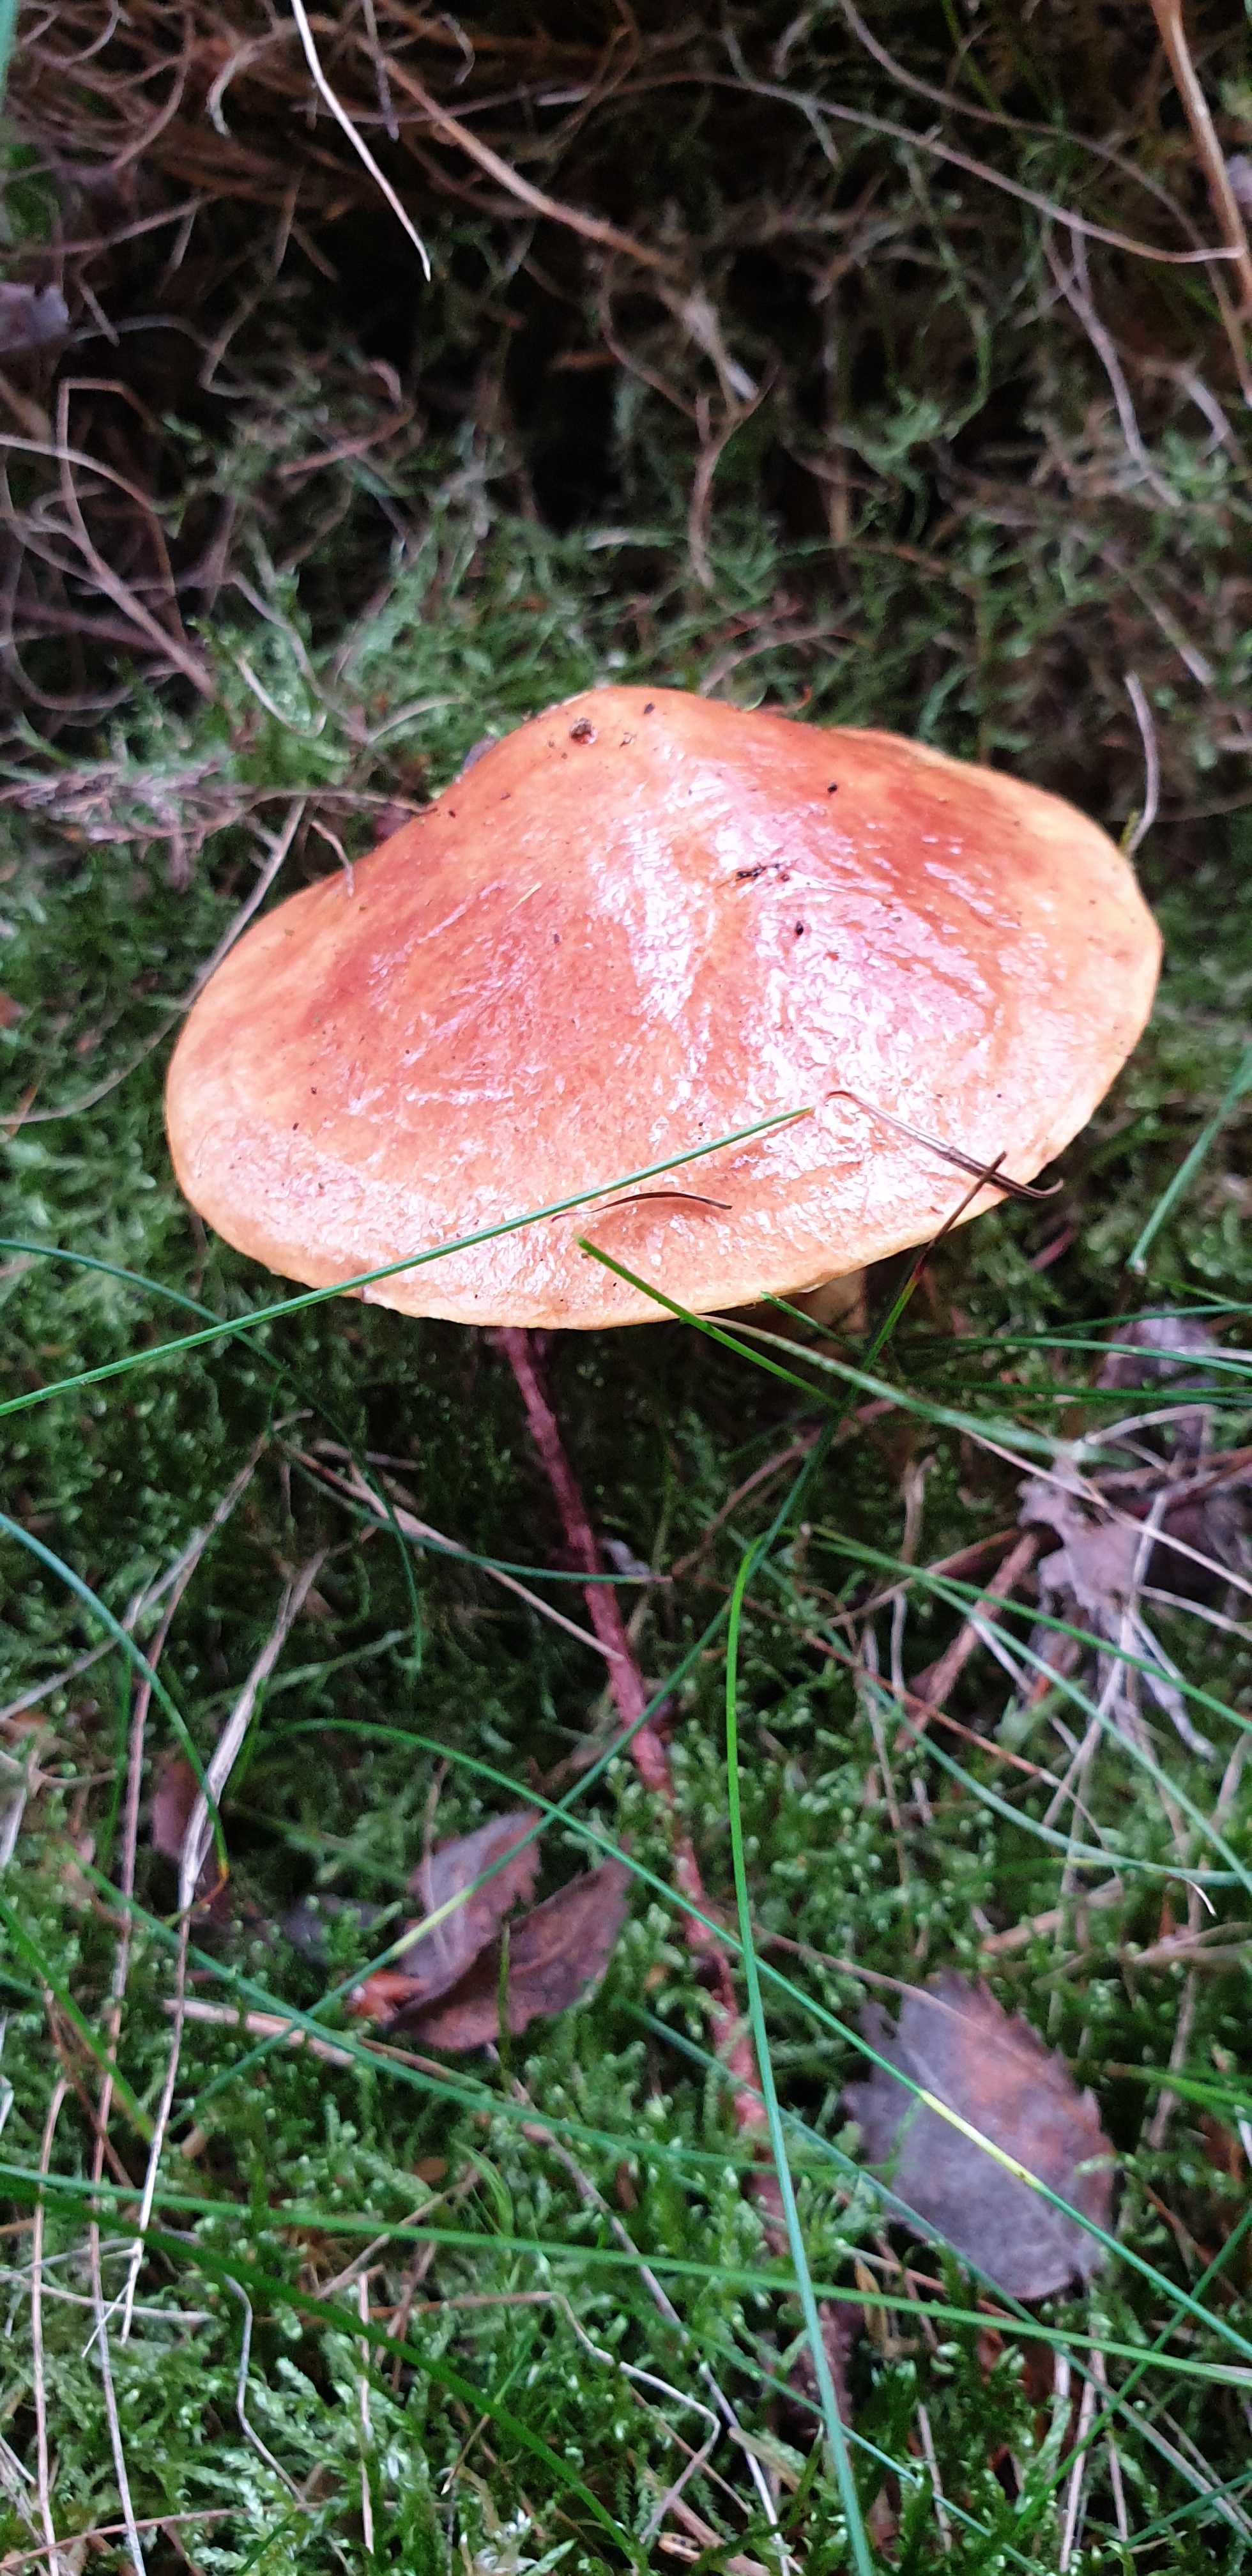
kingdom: Fungi
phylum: Basidiomycota
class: Agaricomycetes
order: Boletales
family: Suillaceae
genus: Suillus
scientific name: Suillus grevillei
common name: lærke-slimrørhat
